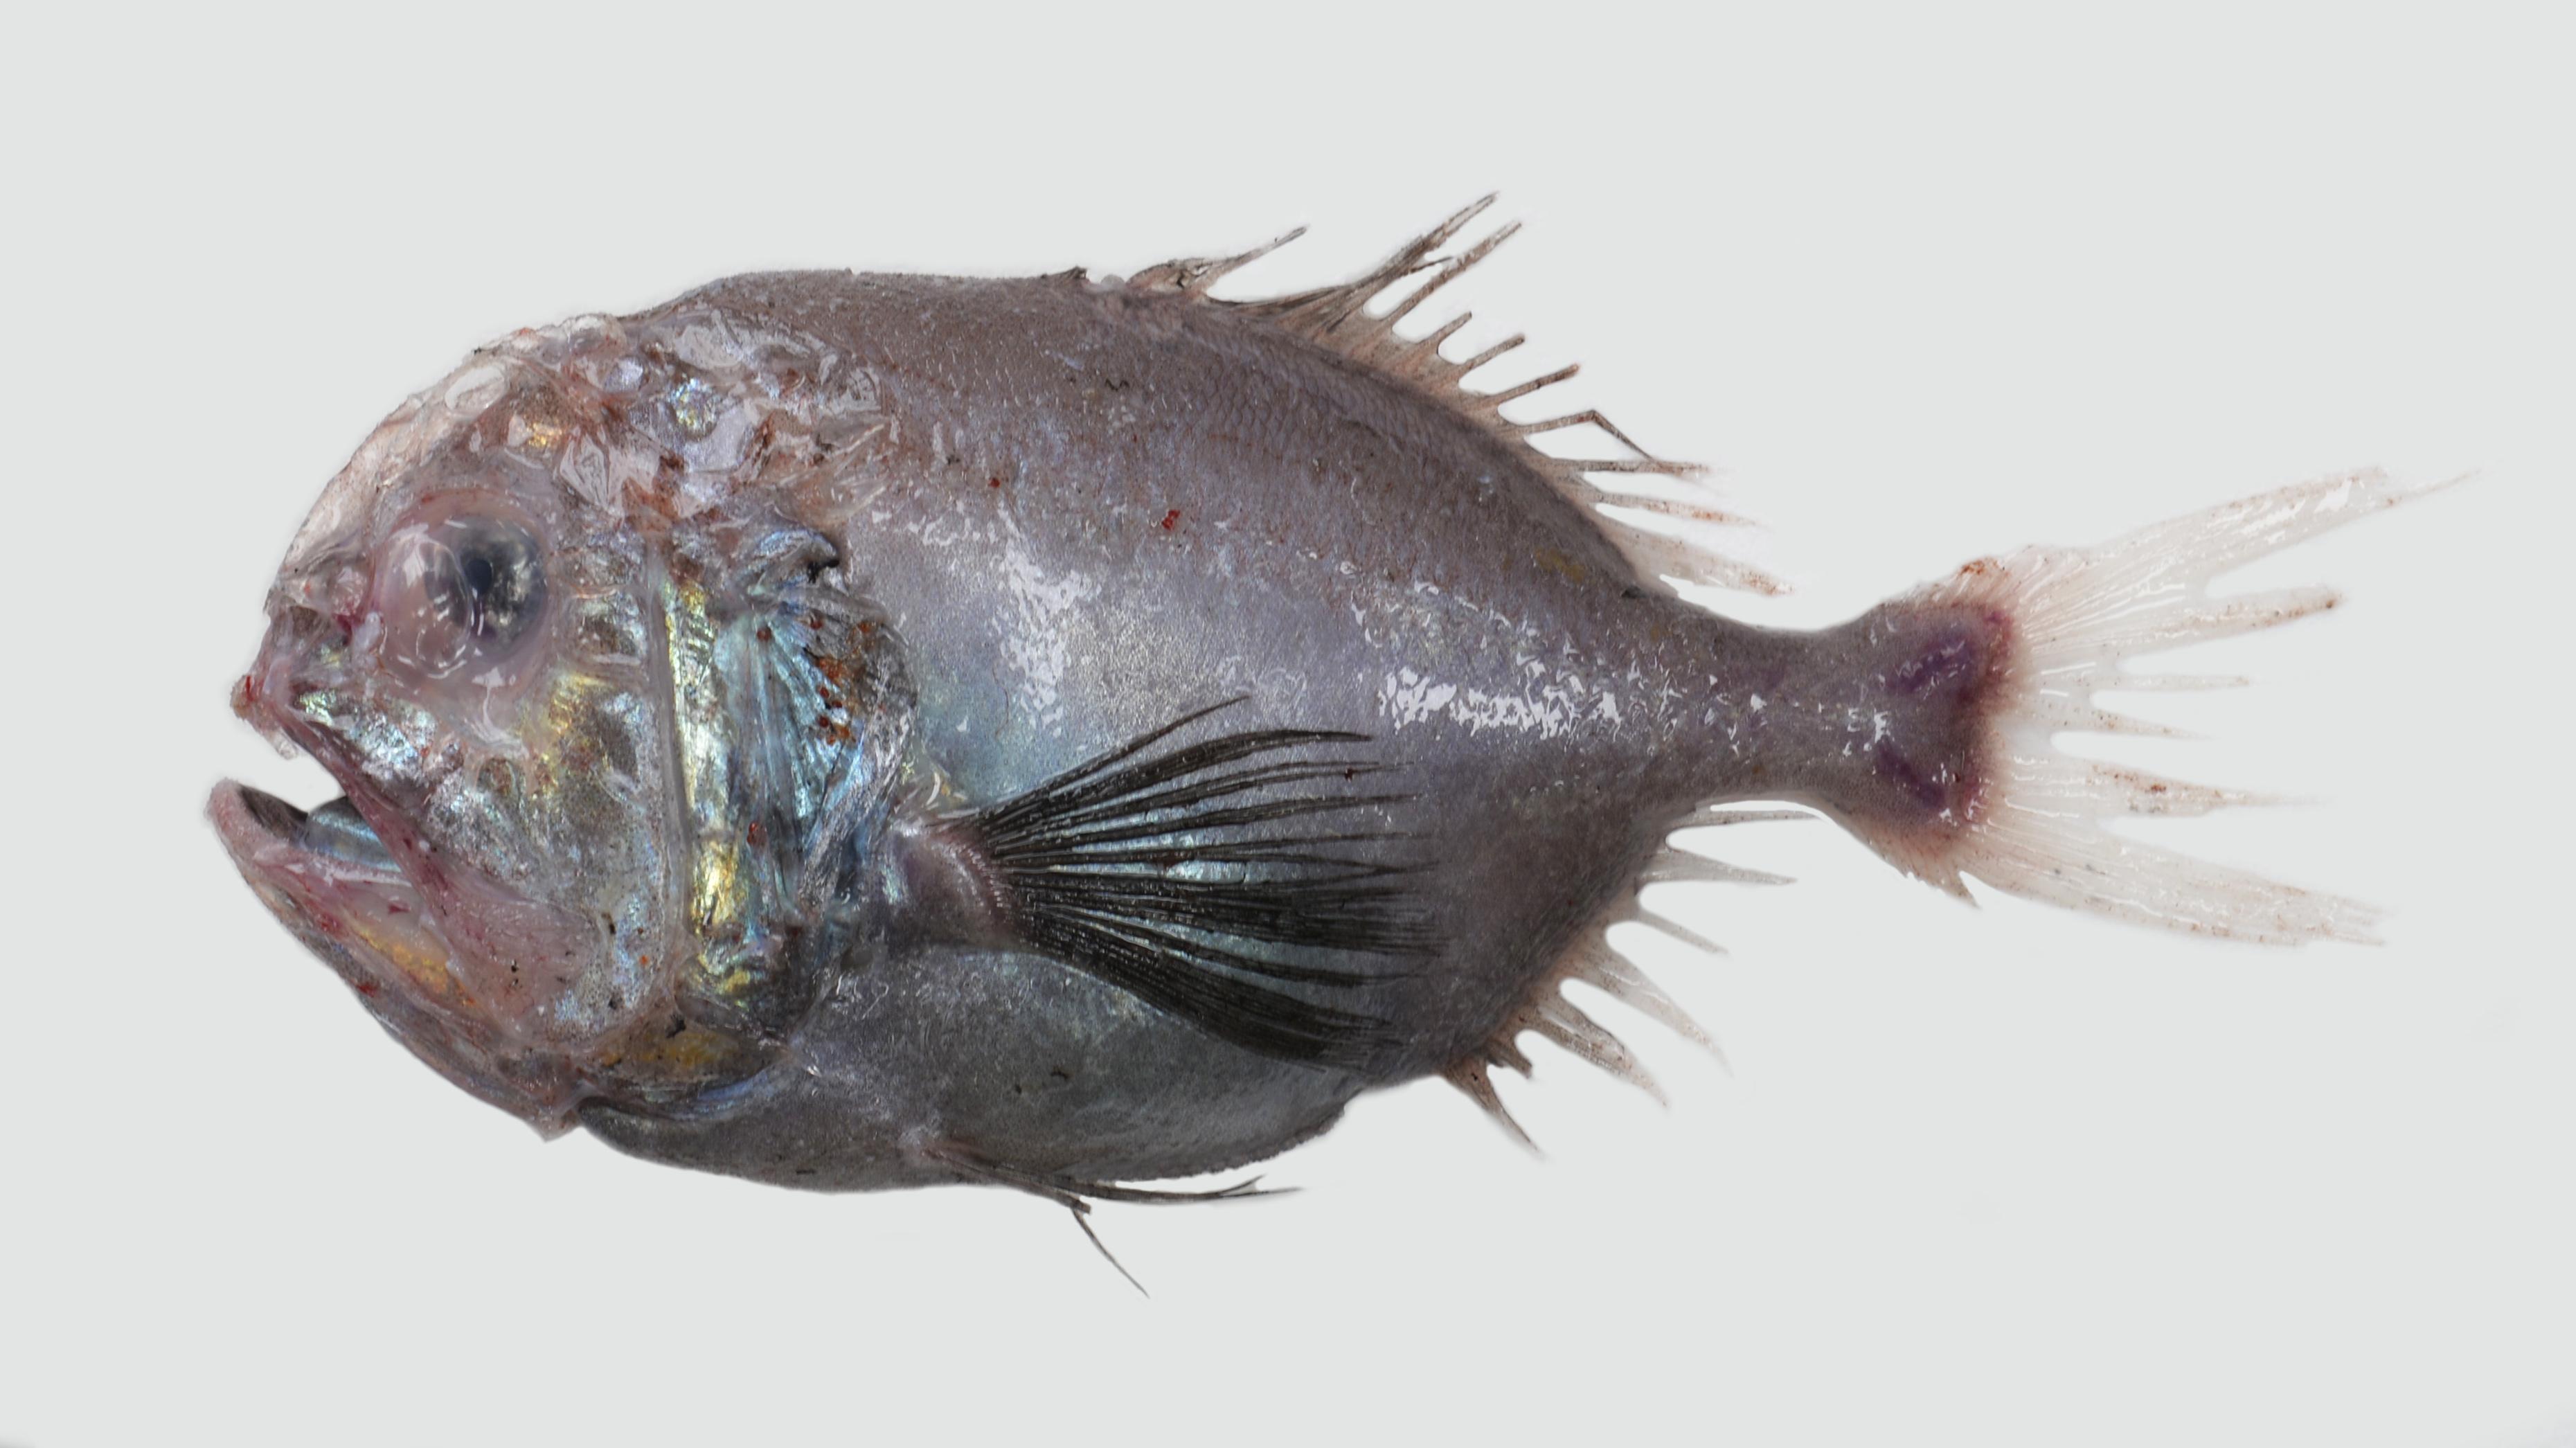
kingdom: Animalia
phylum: Chordata
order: Beryciformes
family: Trachichthyidae
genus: Hoplostethus
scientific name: Hoplostethus melanopus
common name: Blackfin roughy
